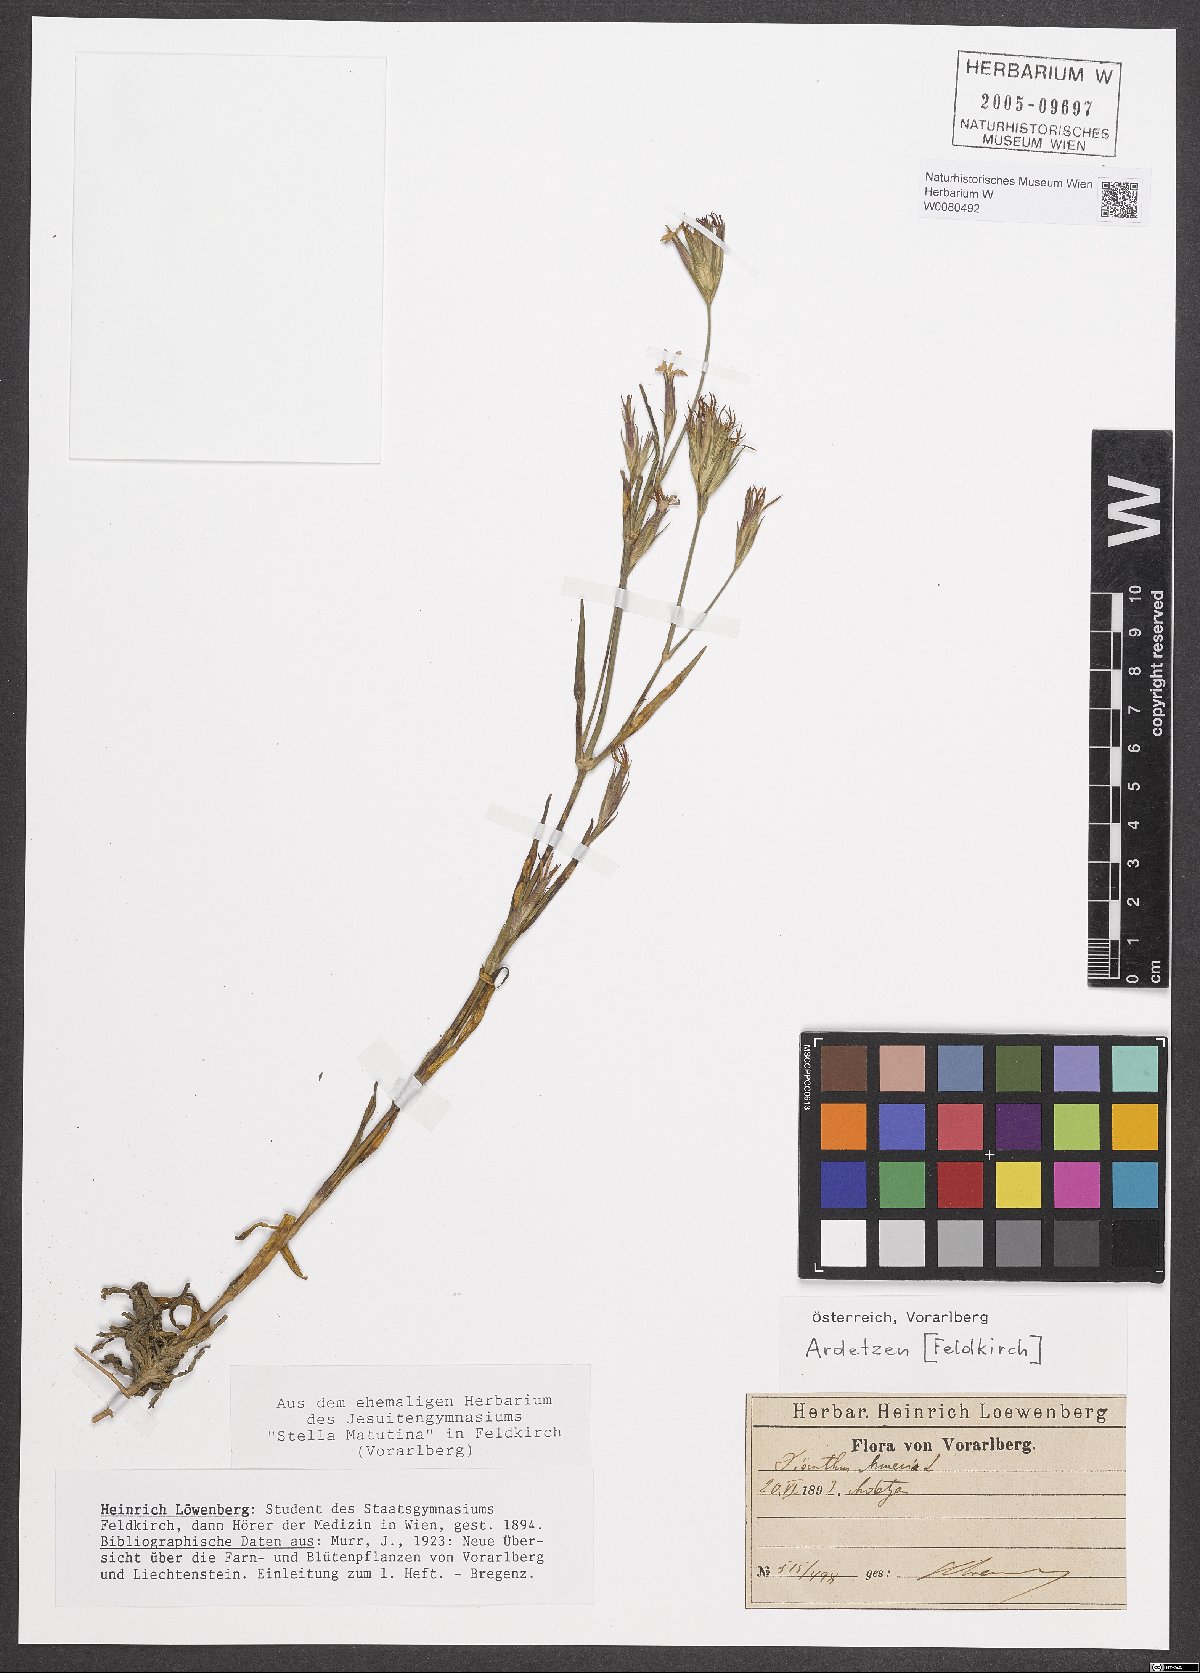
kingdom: Plantae
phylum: Tracheophyta
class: Magnoliopsida
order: Caryophyllales
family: Caryophyllaceae
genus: Dianthus
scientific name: Dianthus armeria
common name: Deptford pink
